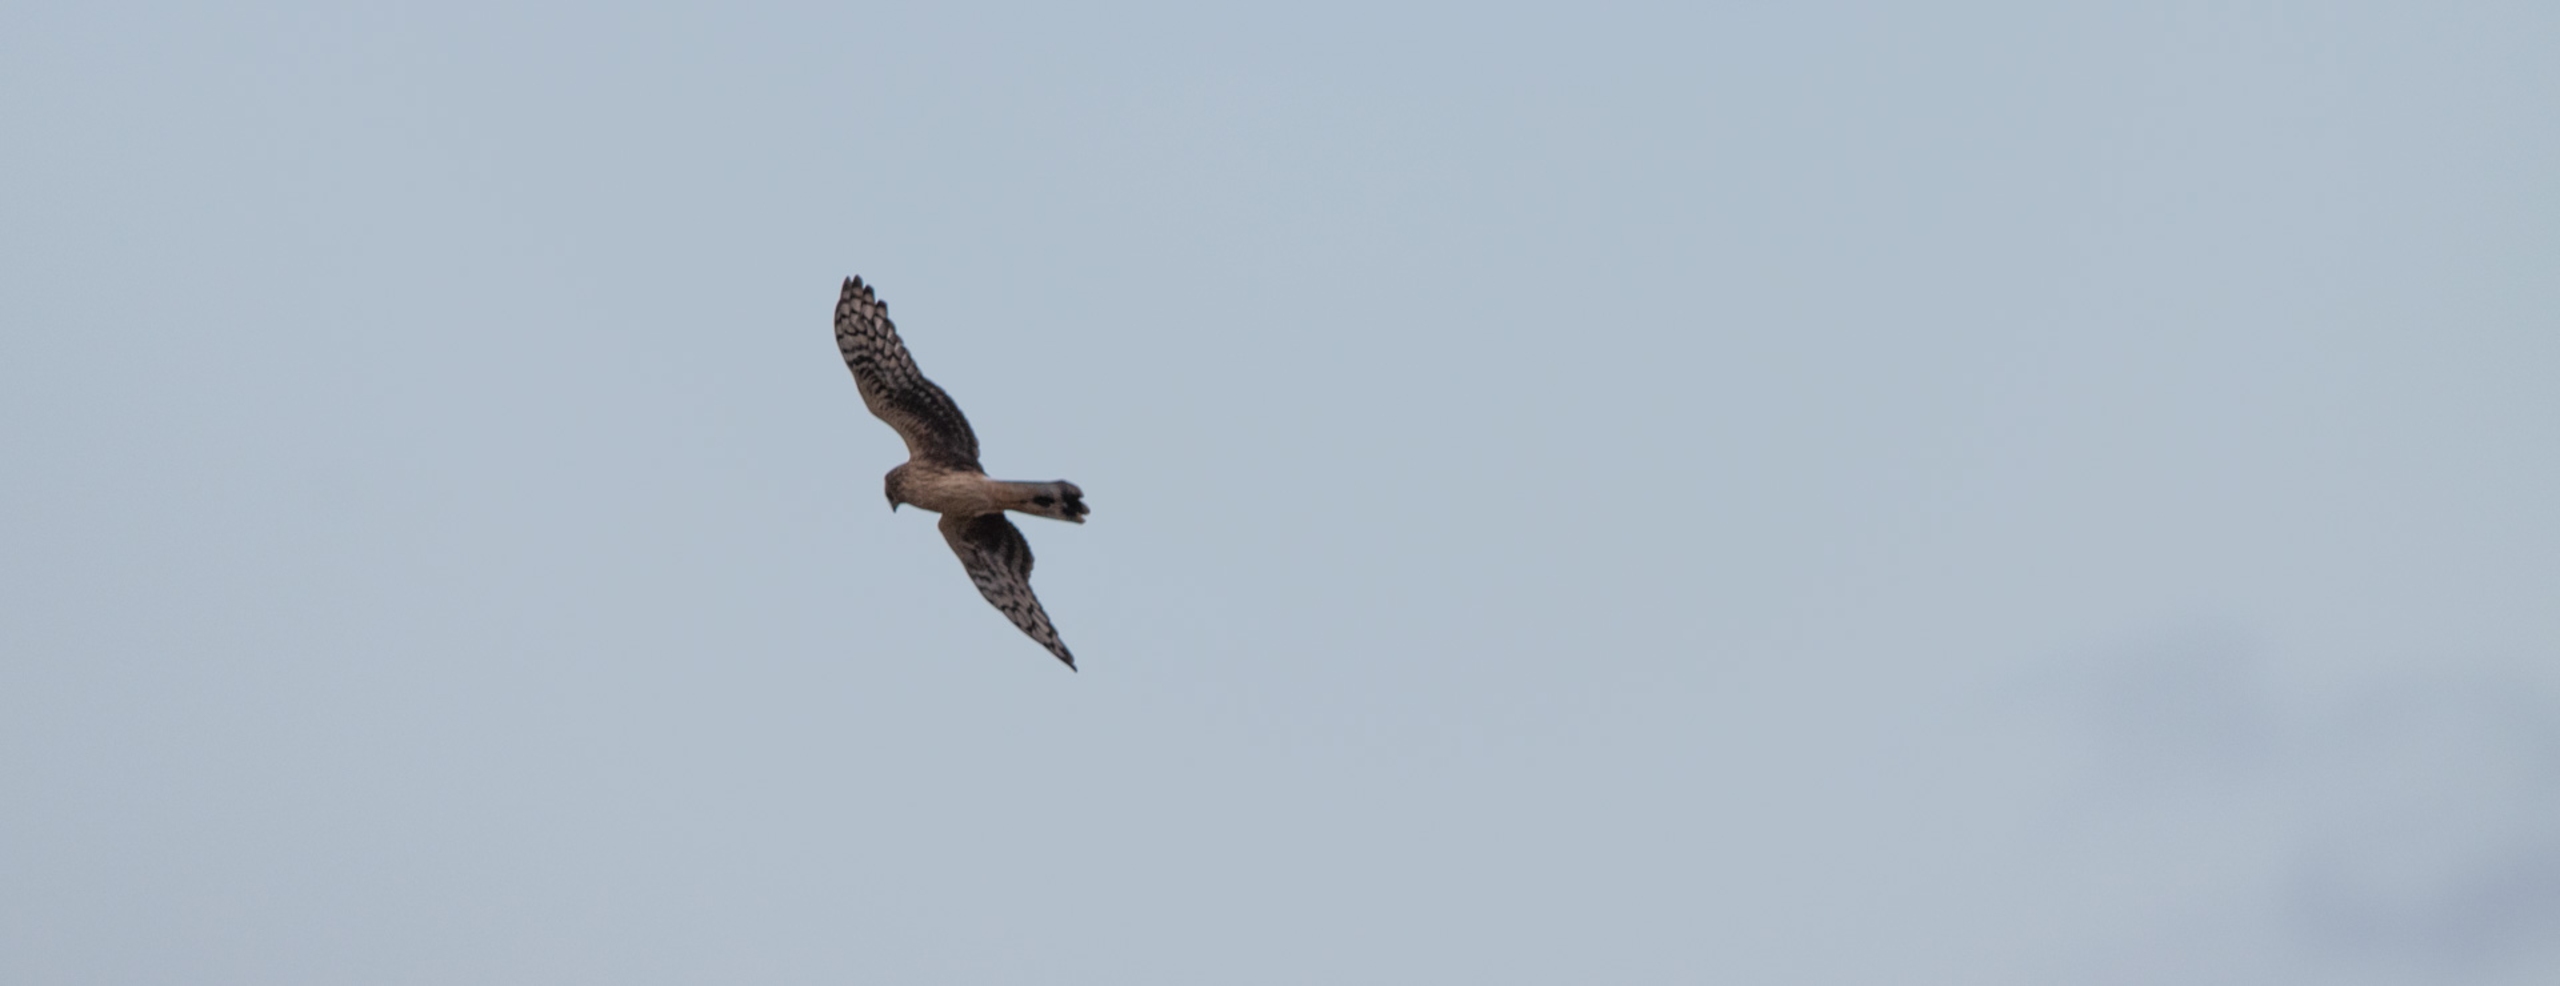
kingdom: Animalia
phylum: Chordata
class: Aves
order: Accipitriformes
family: Accipitridae
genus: Circus
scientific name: Circus cyaneus
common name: Blå kærhøg
